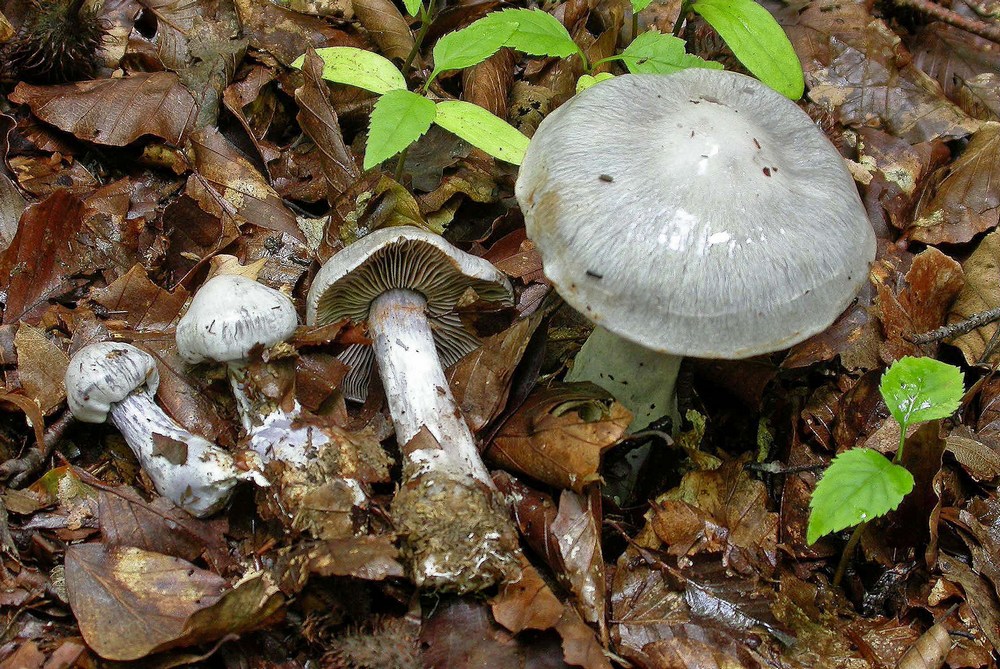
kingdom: Fungi
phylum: Basidiomycota
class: Agaricomycetes
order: Agaricales
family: Cortinariaceae
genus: Cortinarius
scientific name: Cortinarius alboviolaceus
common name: lysviolet slørhat
